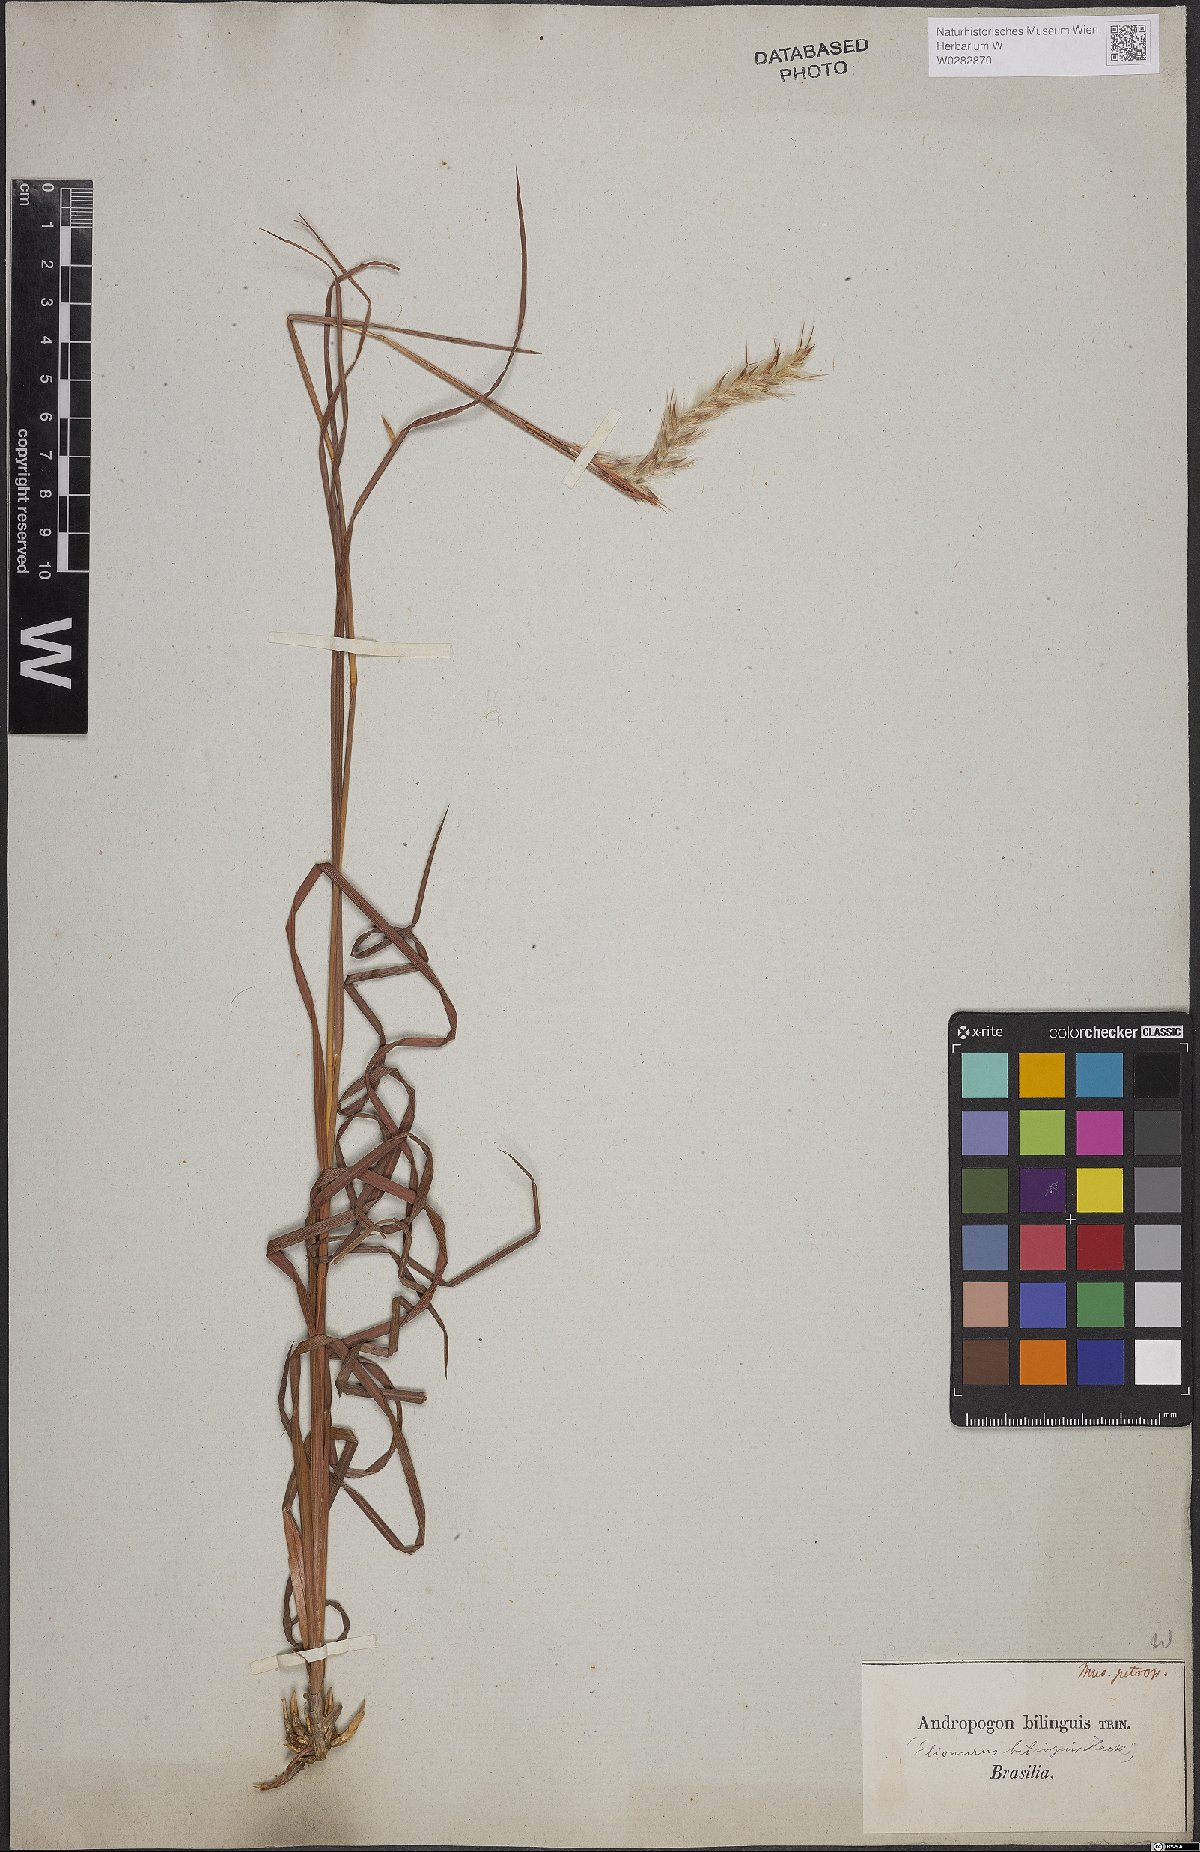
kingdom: Plantae
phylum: Tracheophyta
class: Liliopsida
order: Poales
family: Poaceae
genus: Elionurus
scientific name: Elionurus bilinguis
